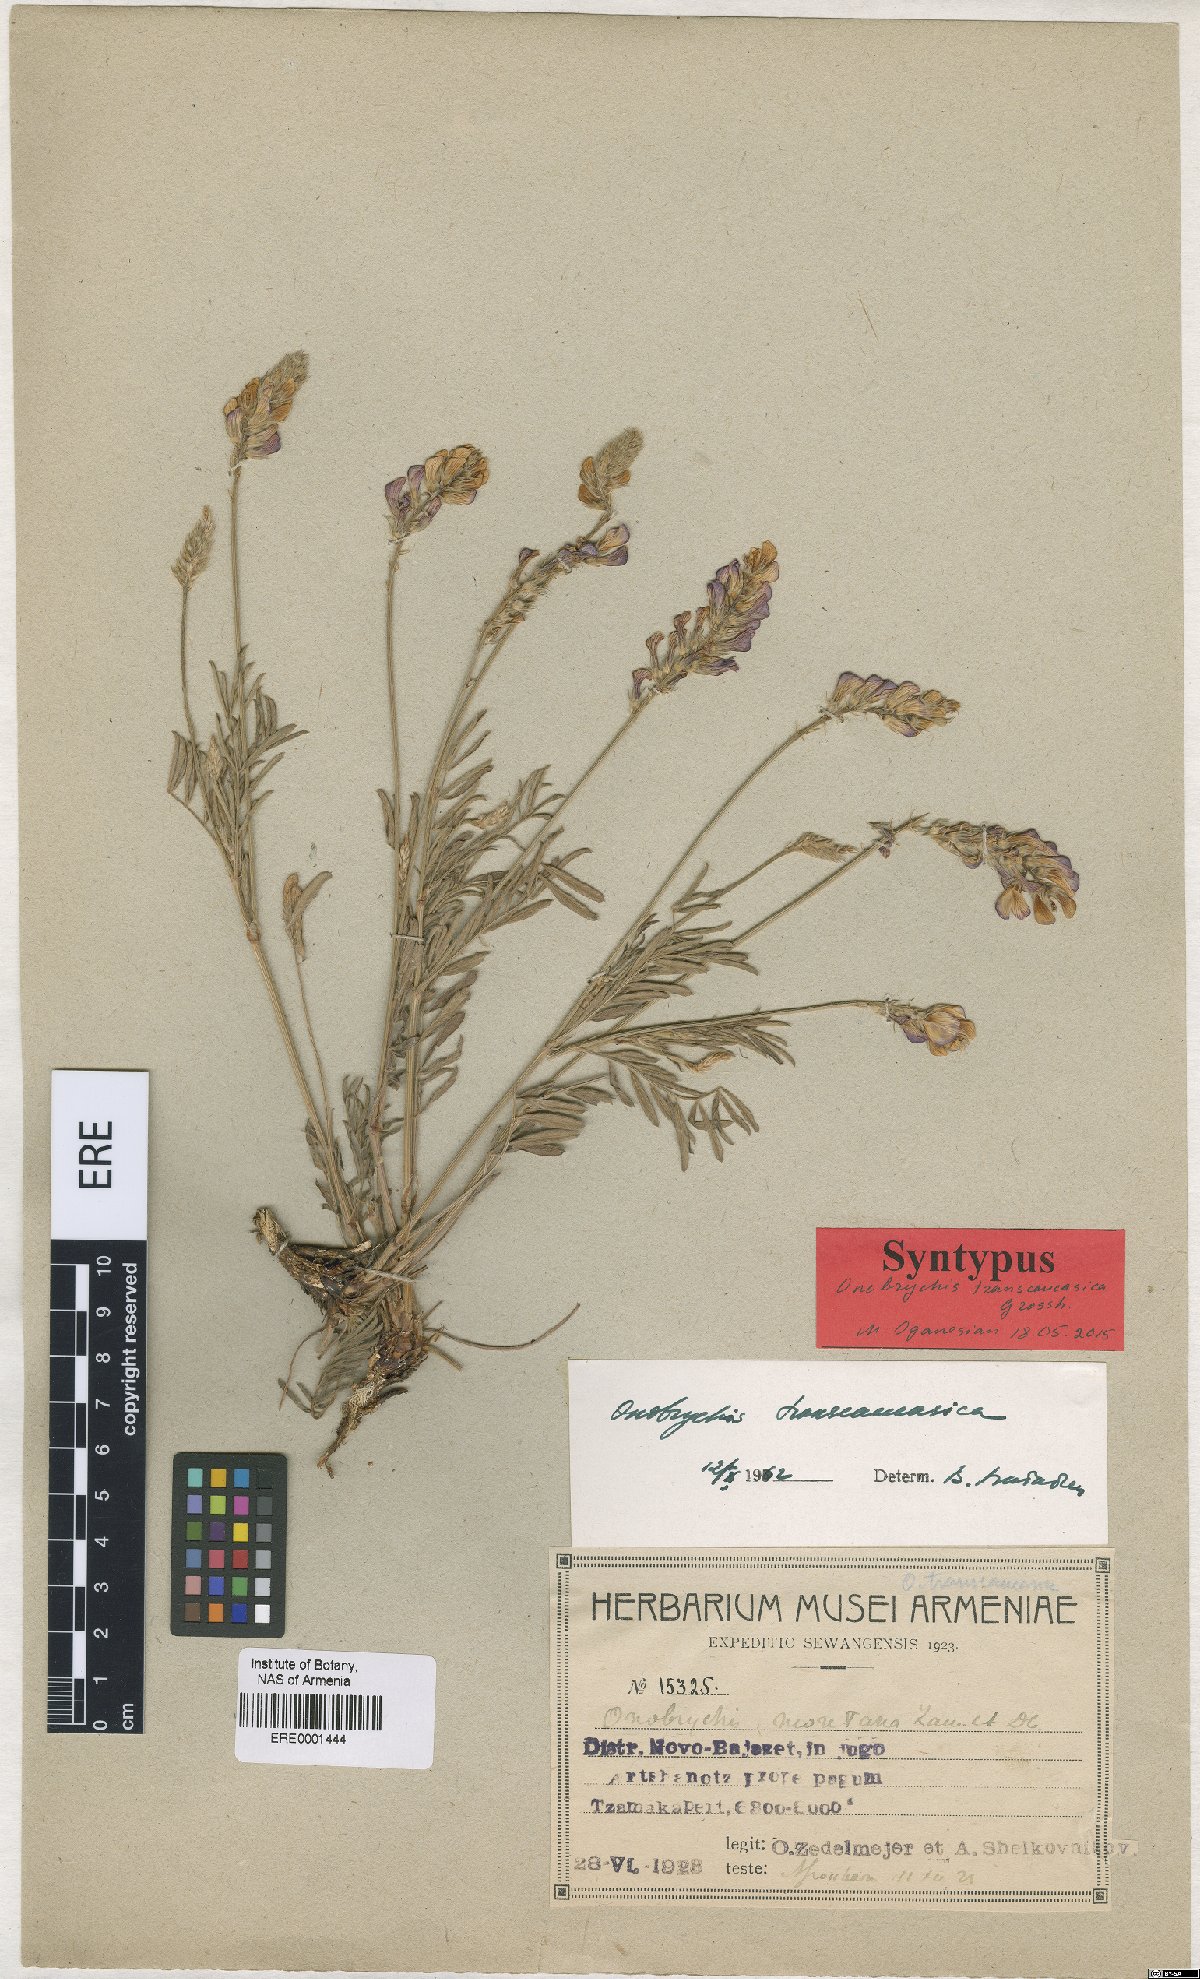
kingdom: Plantae
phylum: Tracheophyta
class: Magnoliopsida
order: Fabales
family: Fabaceae
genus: Onobrychis
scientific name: Onobrychis transcaucasica
